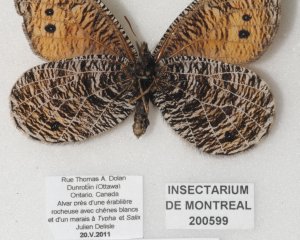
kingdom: Animalia
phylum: Arthropoda
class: Insecta
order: Lepidoptera
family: Nymphalidae
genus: Oeneis
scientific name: Oeneis chryxus
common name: Chryxus Arctic
